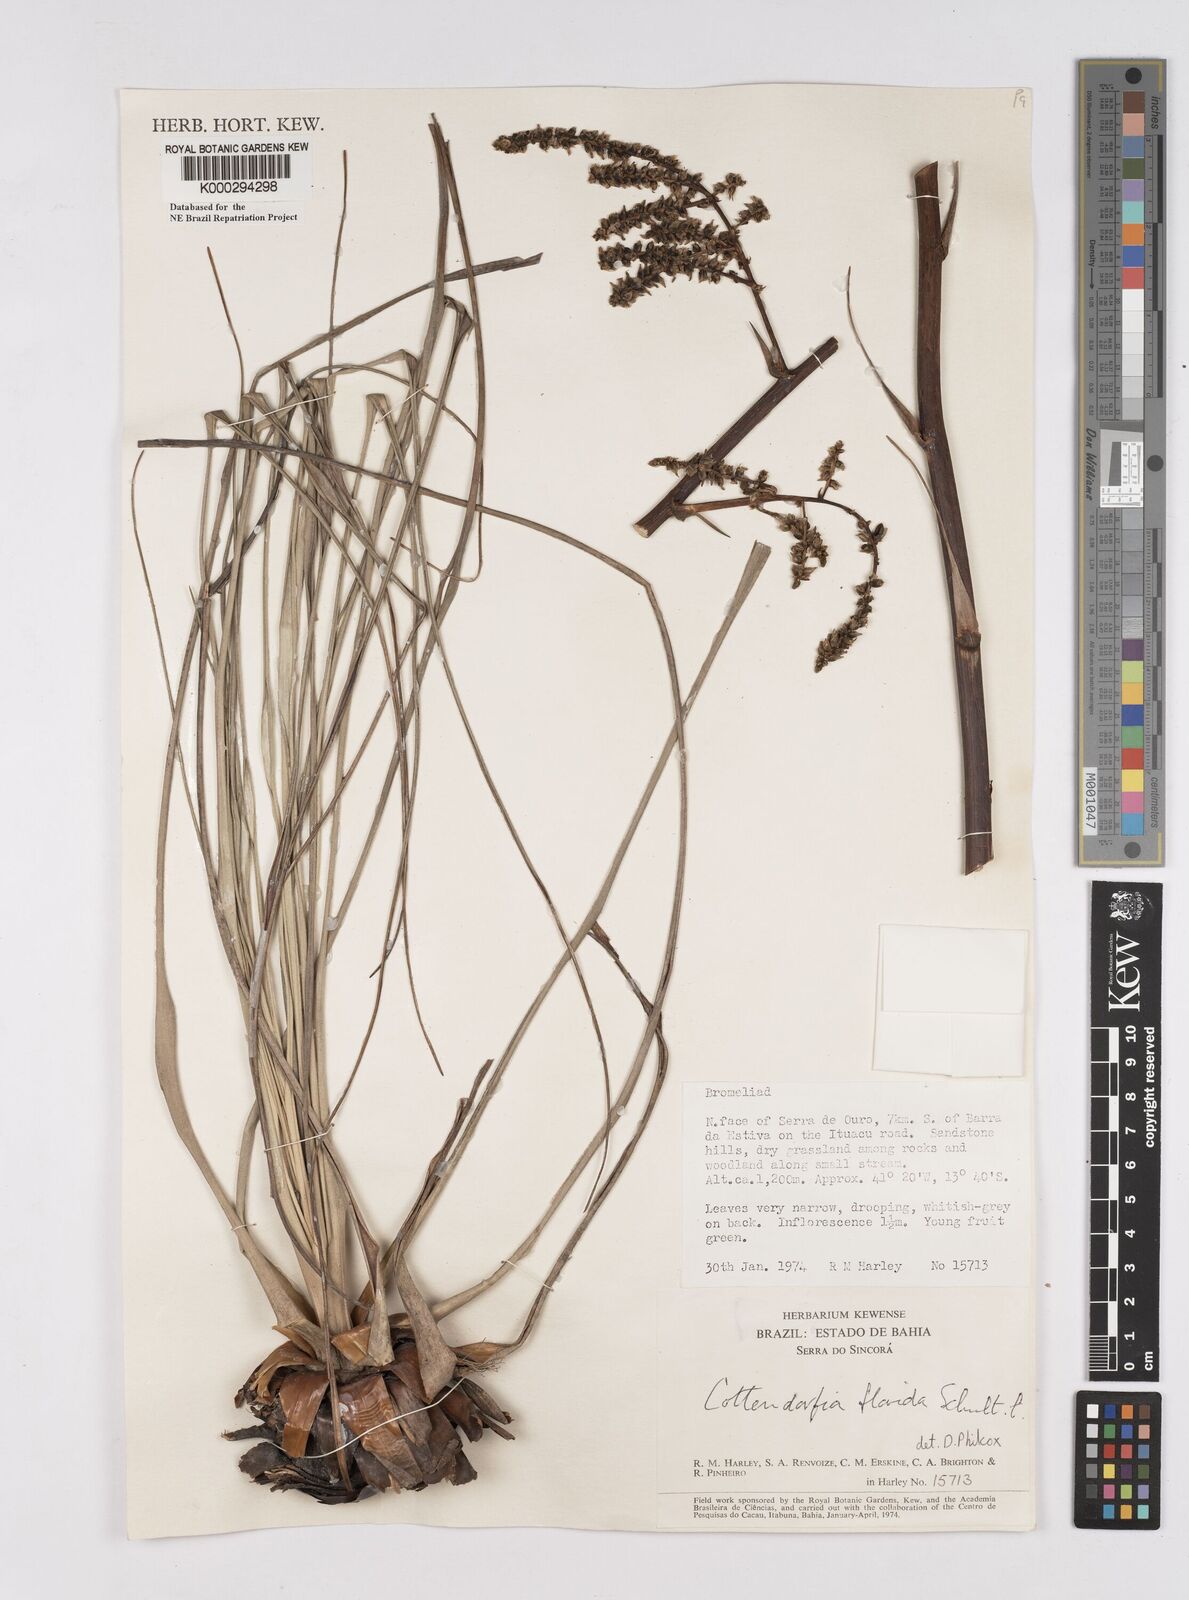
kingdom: Plantae
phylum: Tracheophyta
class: Liliopsida
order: Poales
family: Bromeliaceae
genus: Cottendorfia
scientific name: Cottendorfia florida
